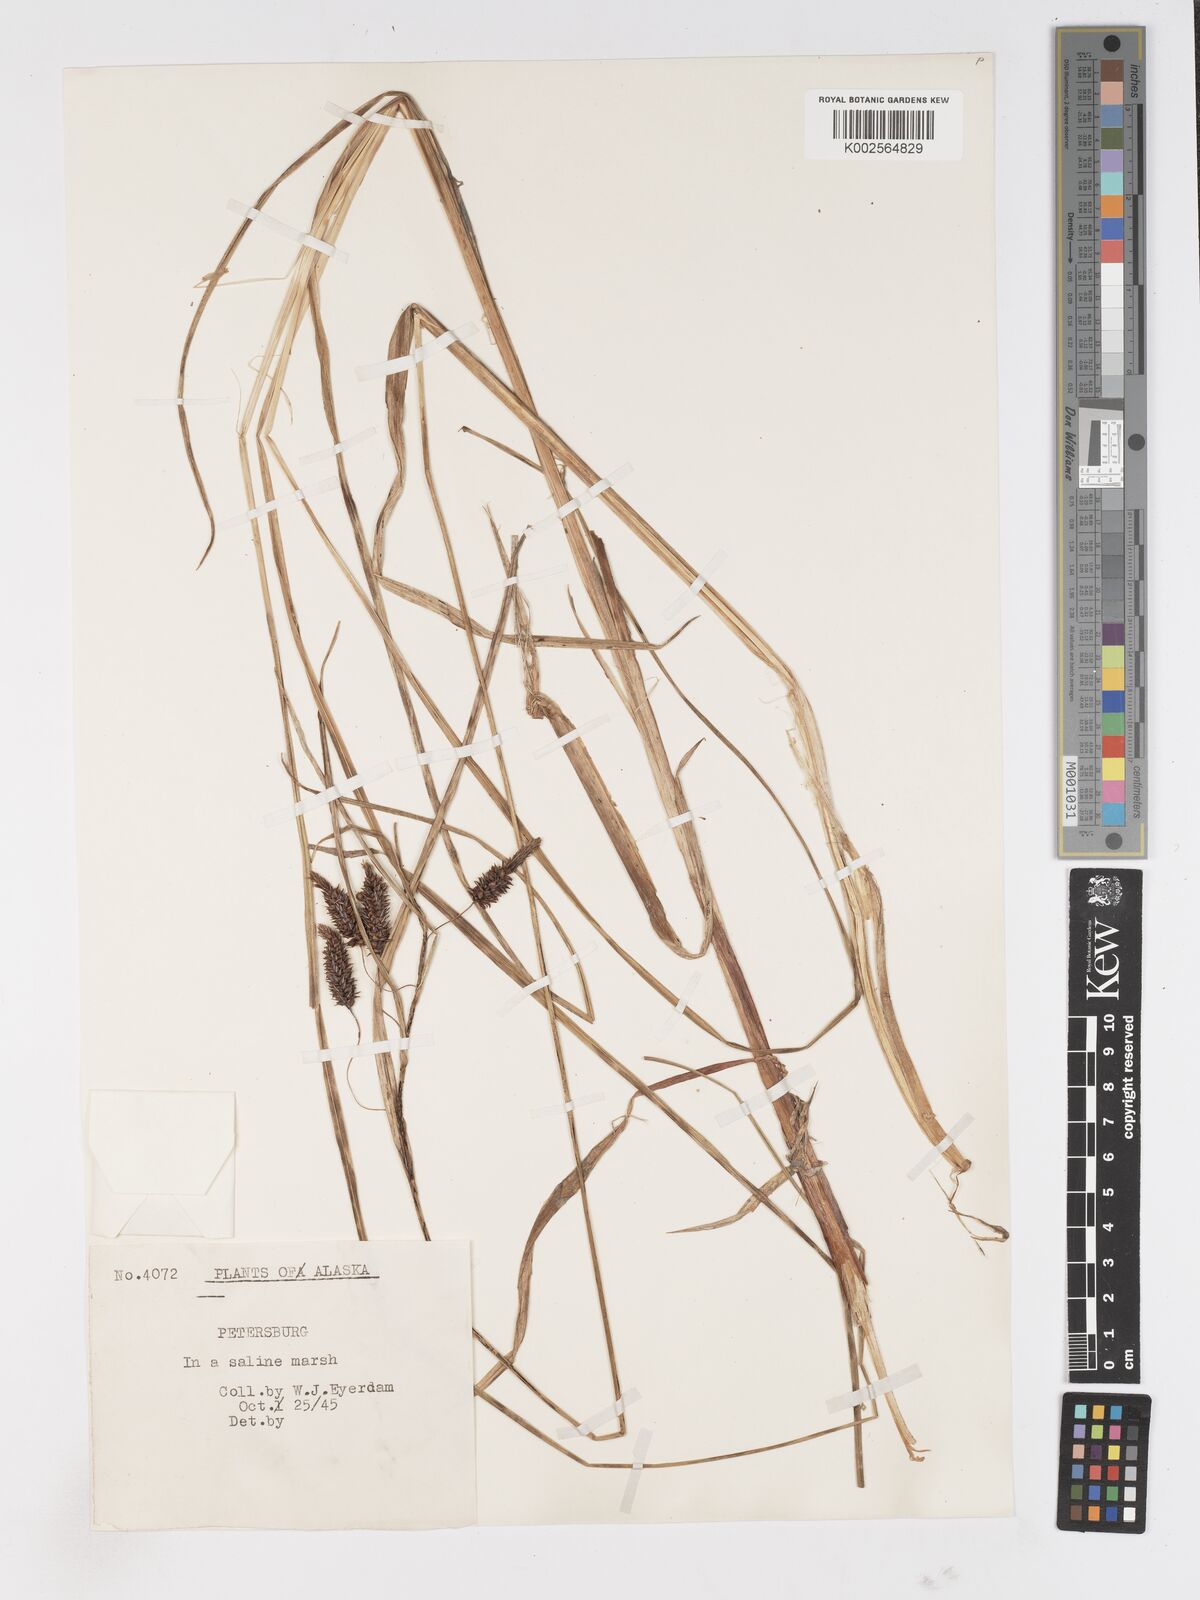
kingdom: Plantae
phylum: Tracheophyta
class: Liliopsida
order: Poales
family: Cyperaceae
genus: Carex
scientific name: Carex
